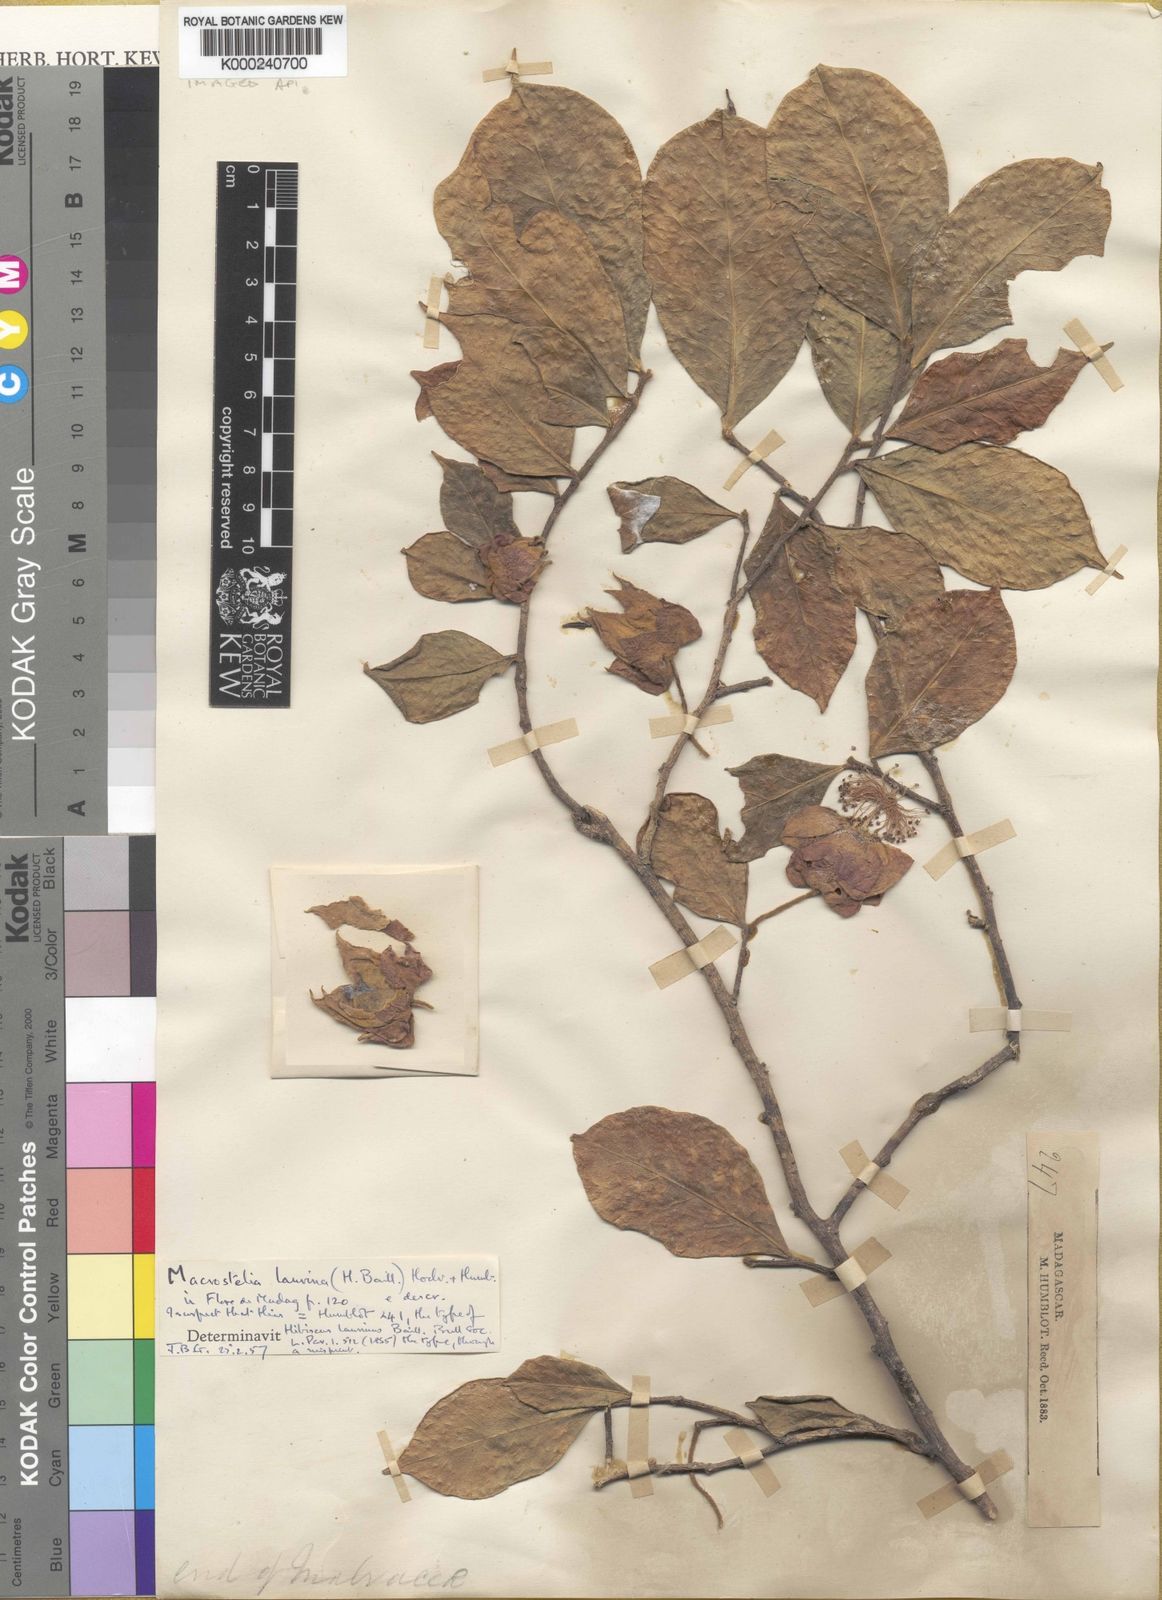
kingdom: Plantae
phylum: Tracheophyta
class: Magnoliopsida
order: Malvales
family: Malvaceae
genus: Humbertianthus
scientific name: Humbertianthus cardiostegius
